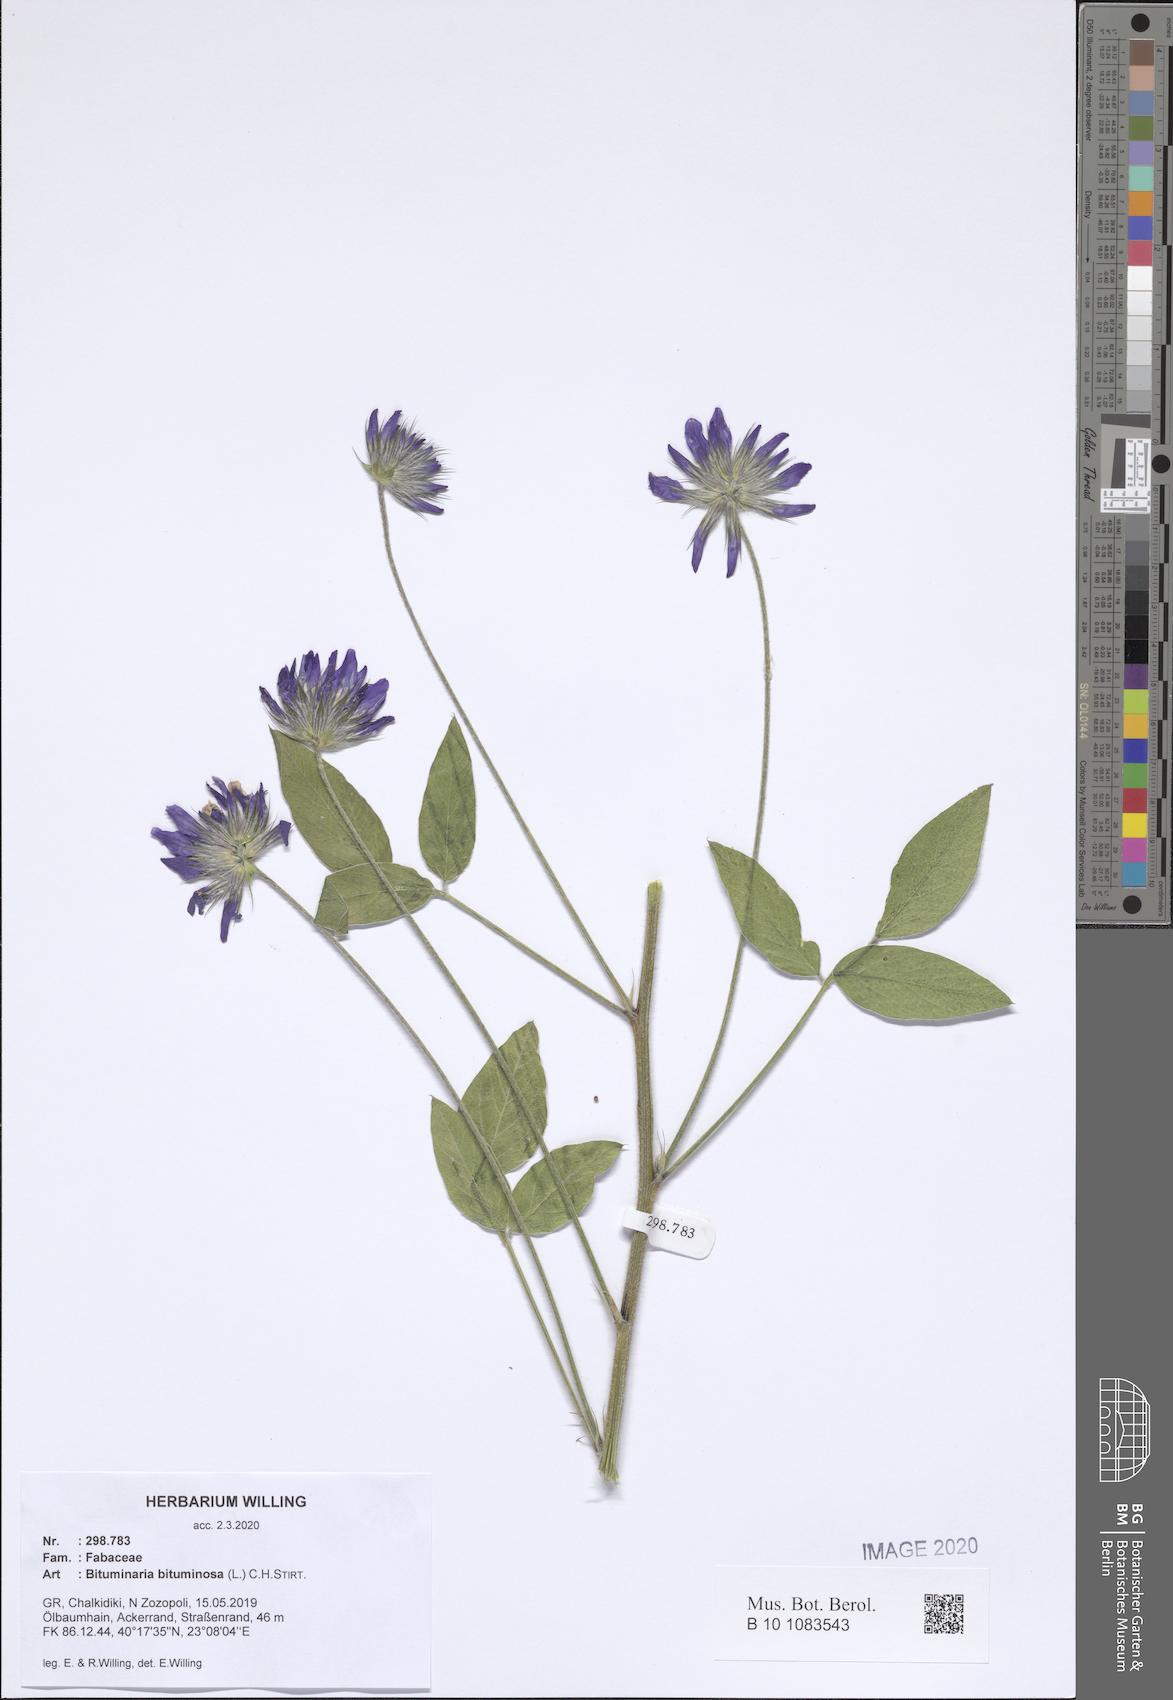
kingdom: Plantae
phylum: Tracheophyta
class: Magnoliopsida
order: Fabales
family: Fabaceae
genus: Bituminaria
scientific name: Bituminaria bituminosa
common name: Arabian pea
